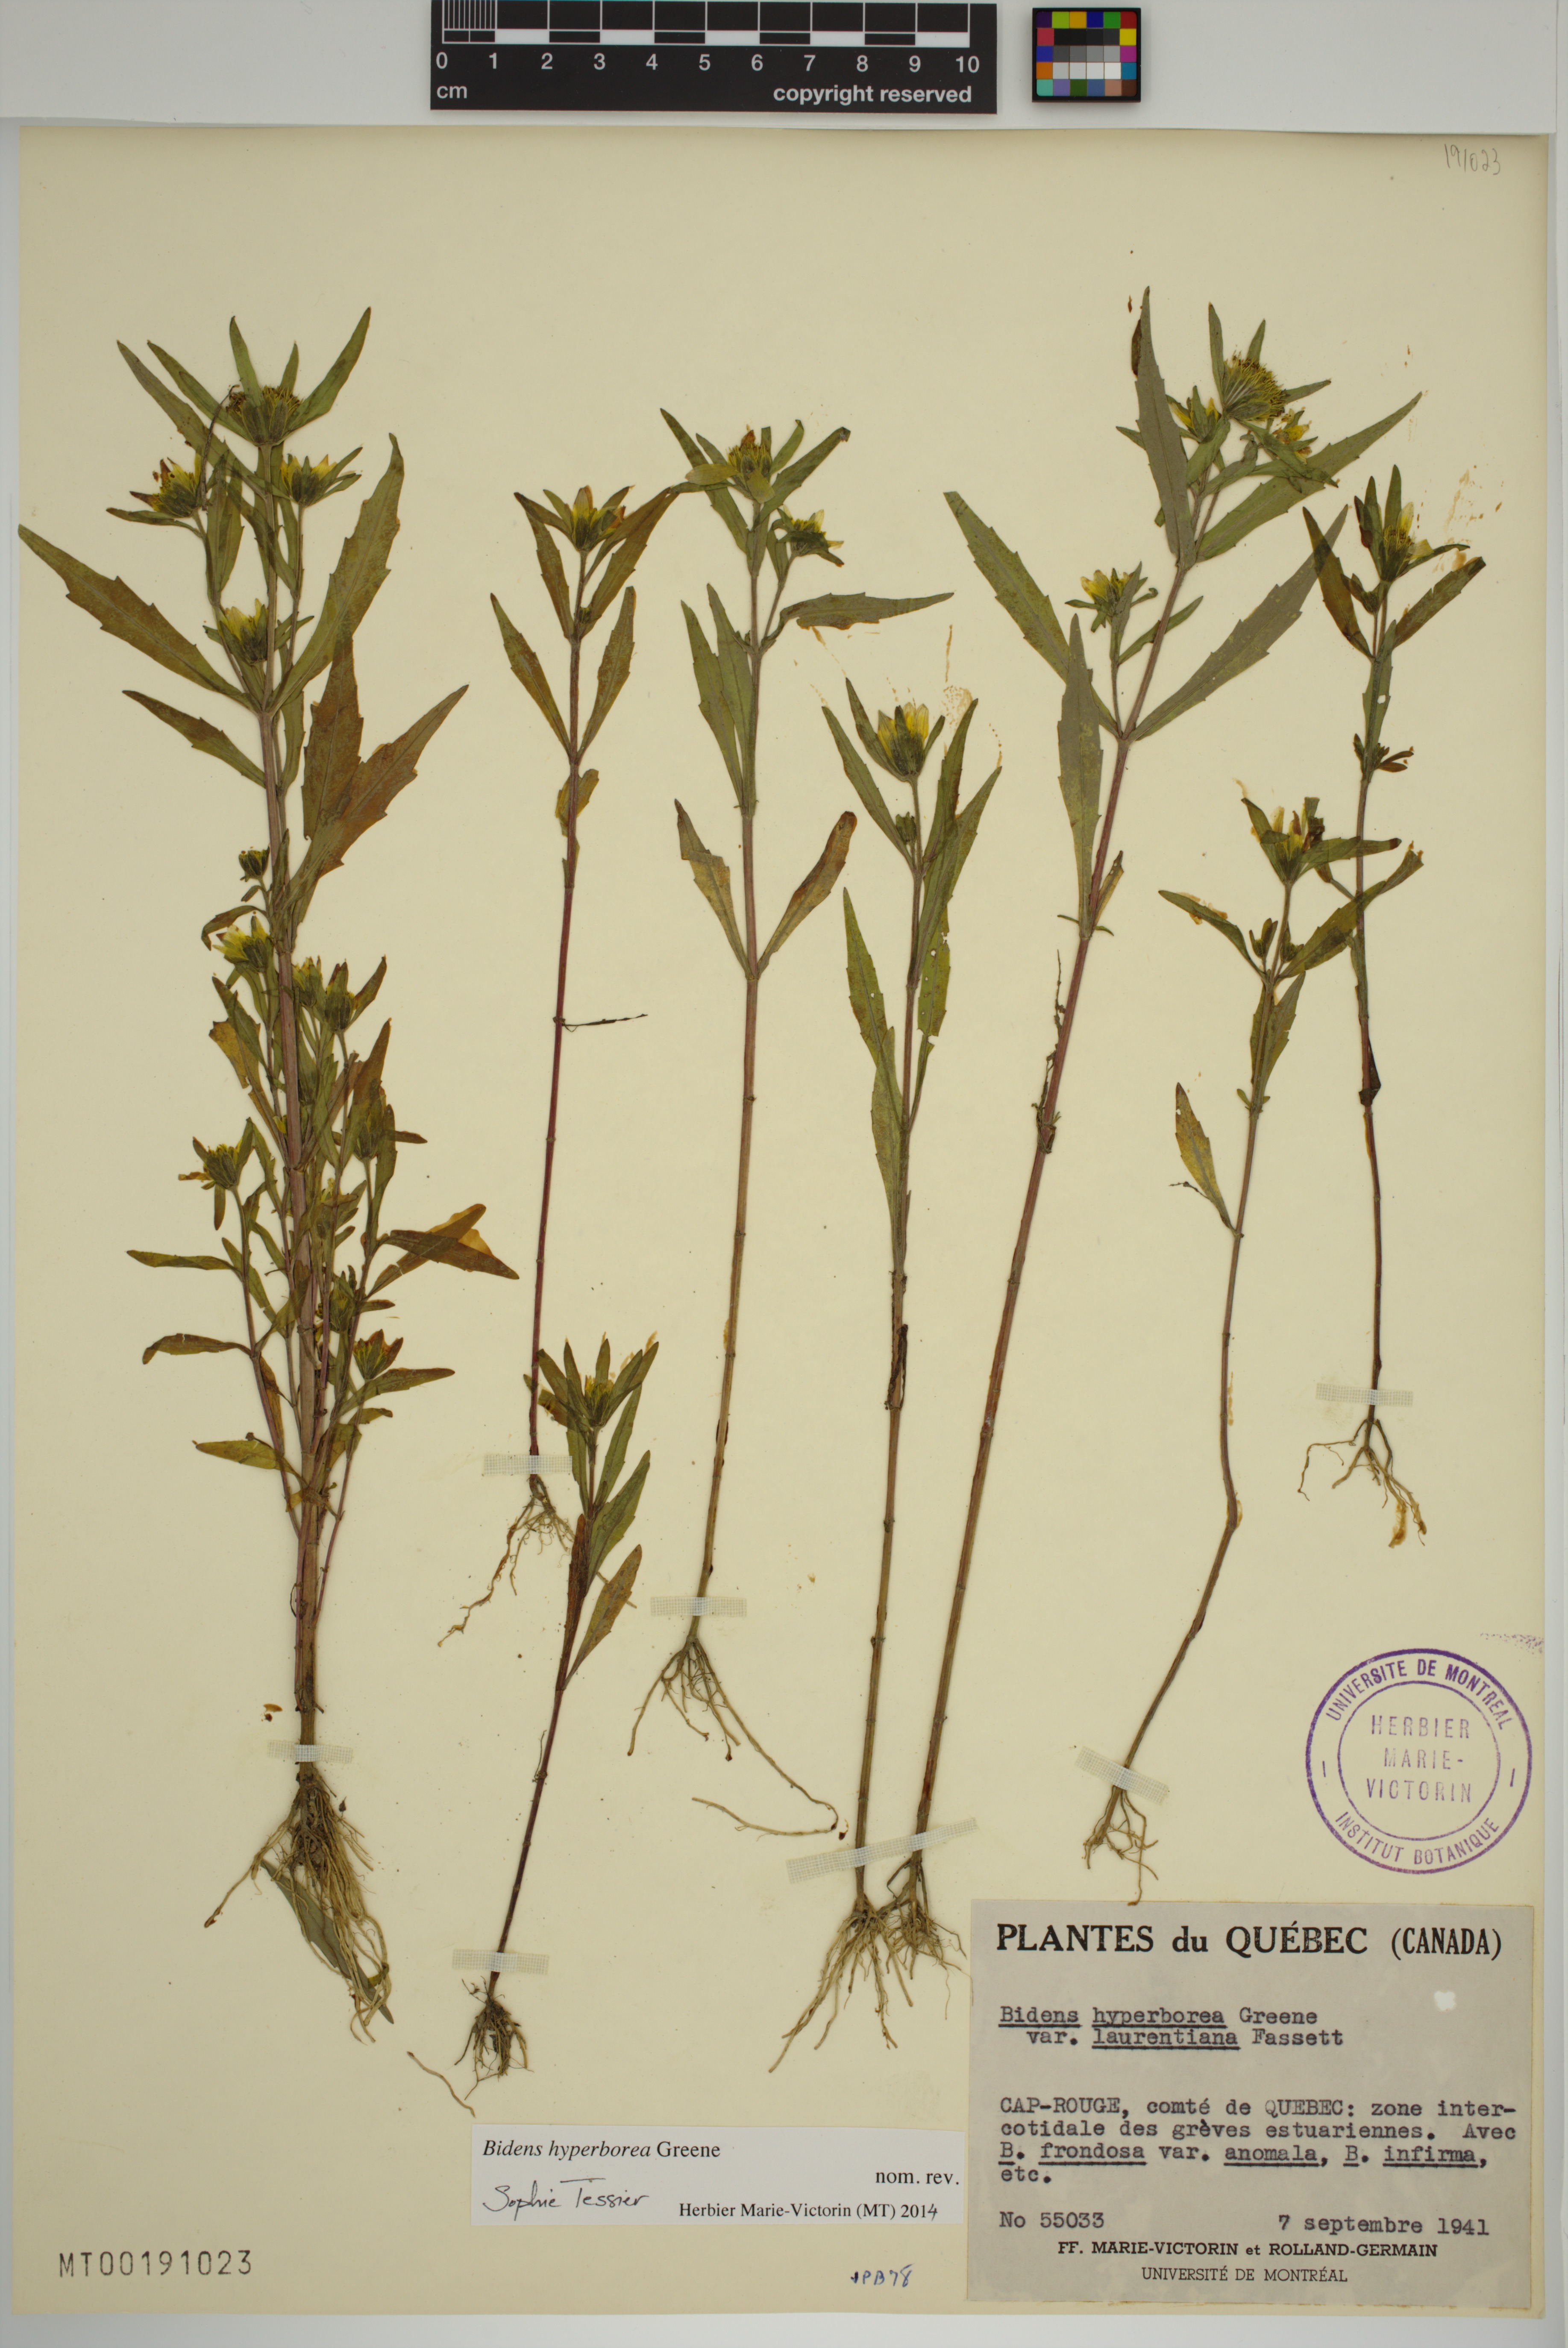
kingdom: Plantae
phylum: Tracheophyta
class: Magnoliopsida
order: Asterales
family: Asteraceae
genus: Bidens
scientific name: Bidens hyperborea
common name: Coastal beggarticks
